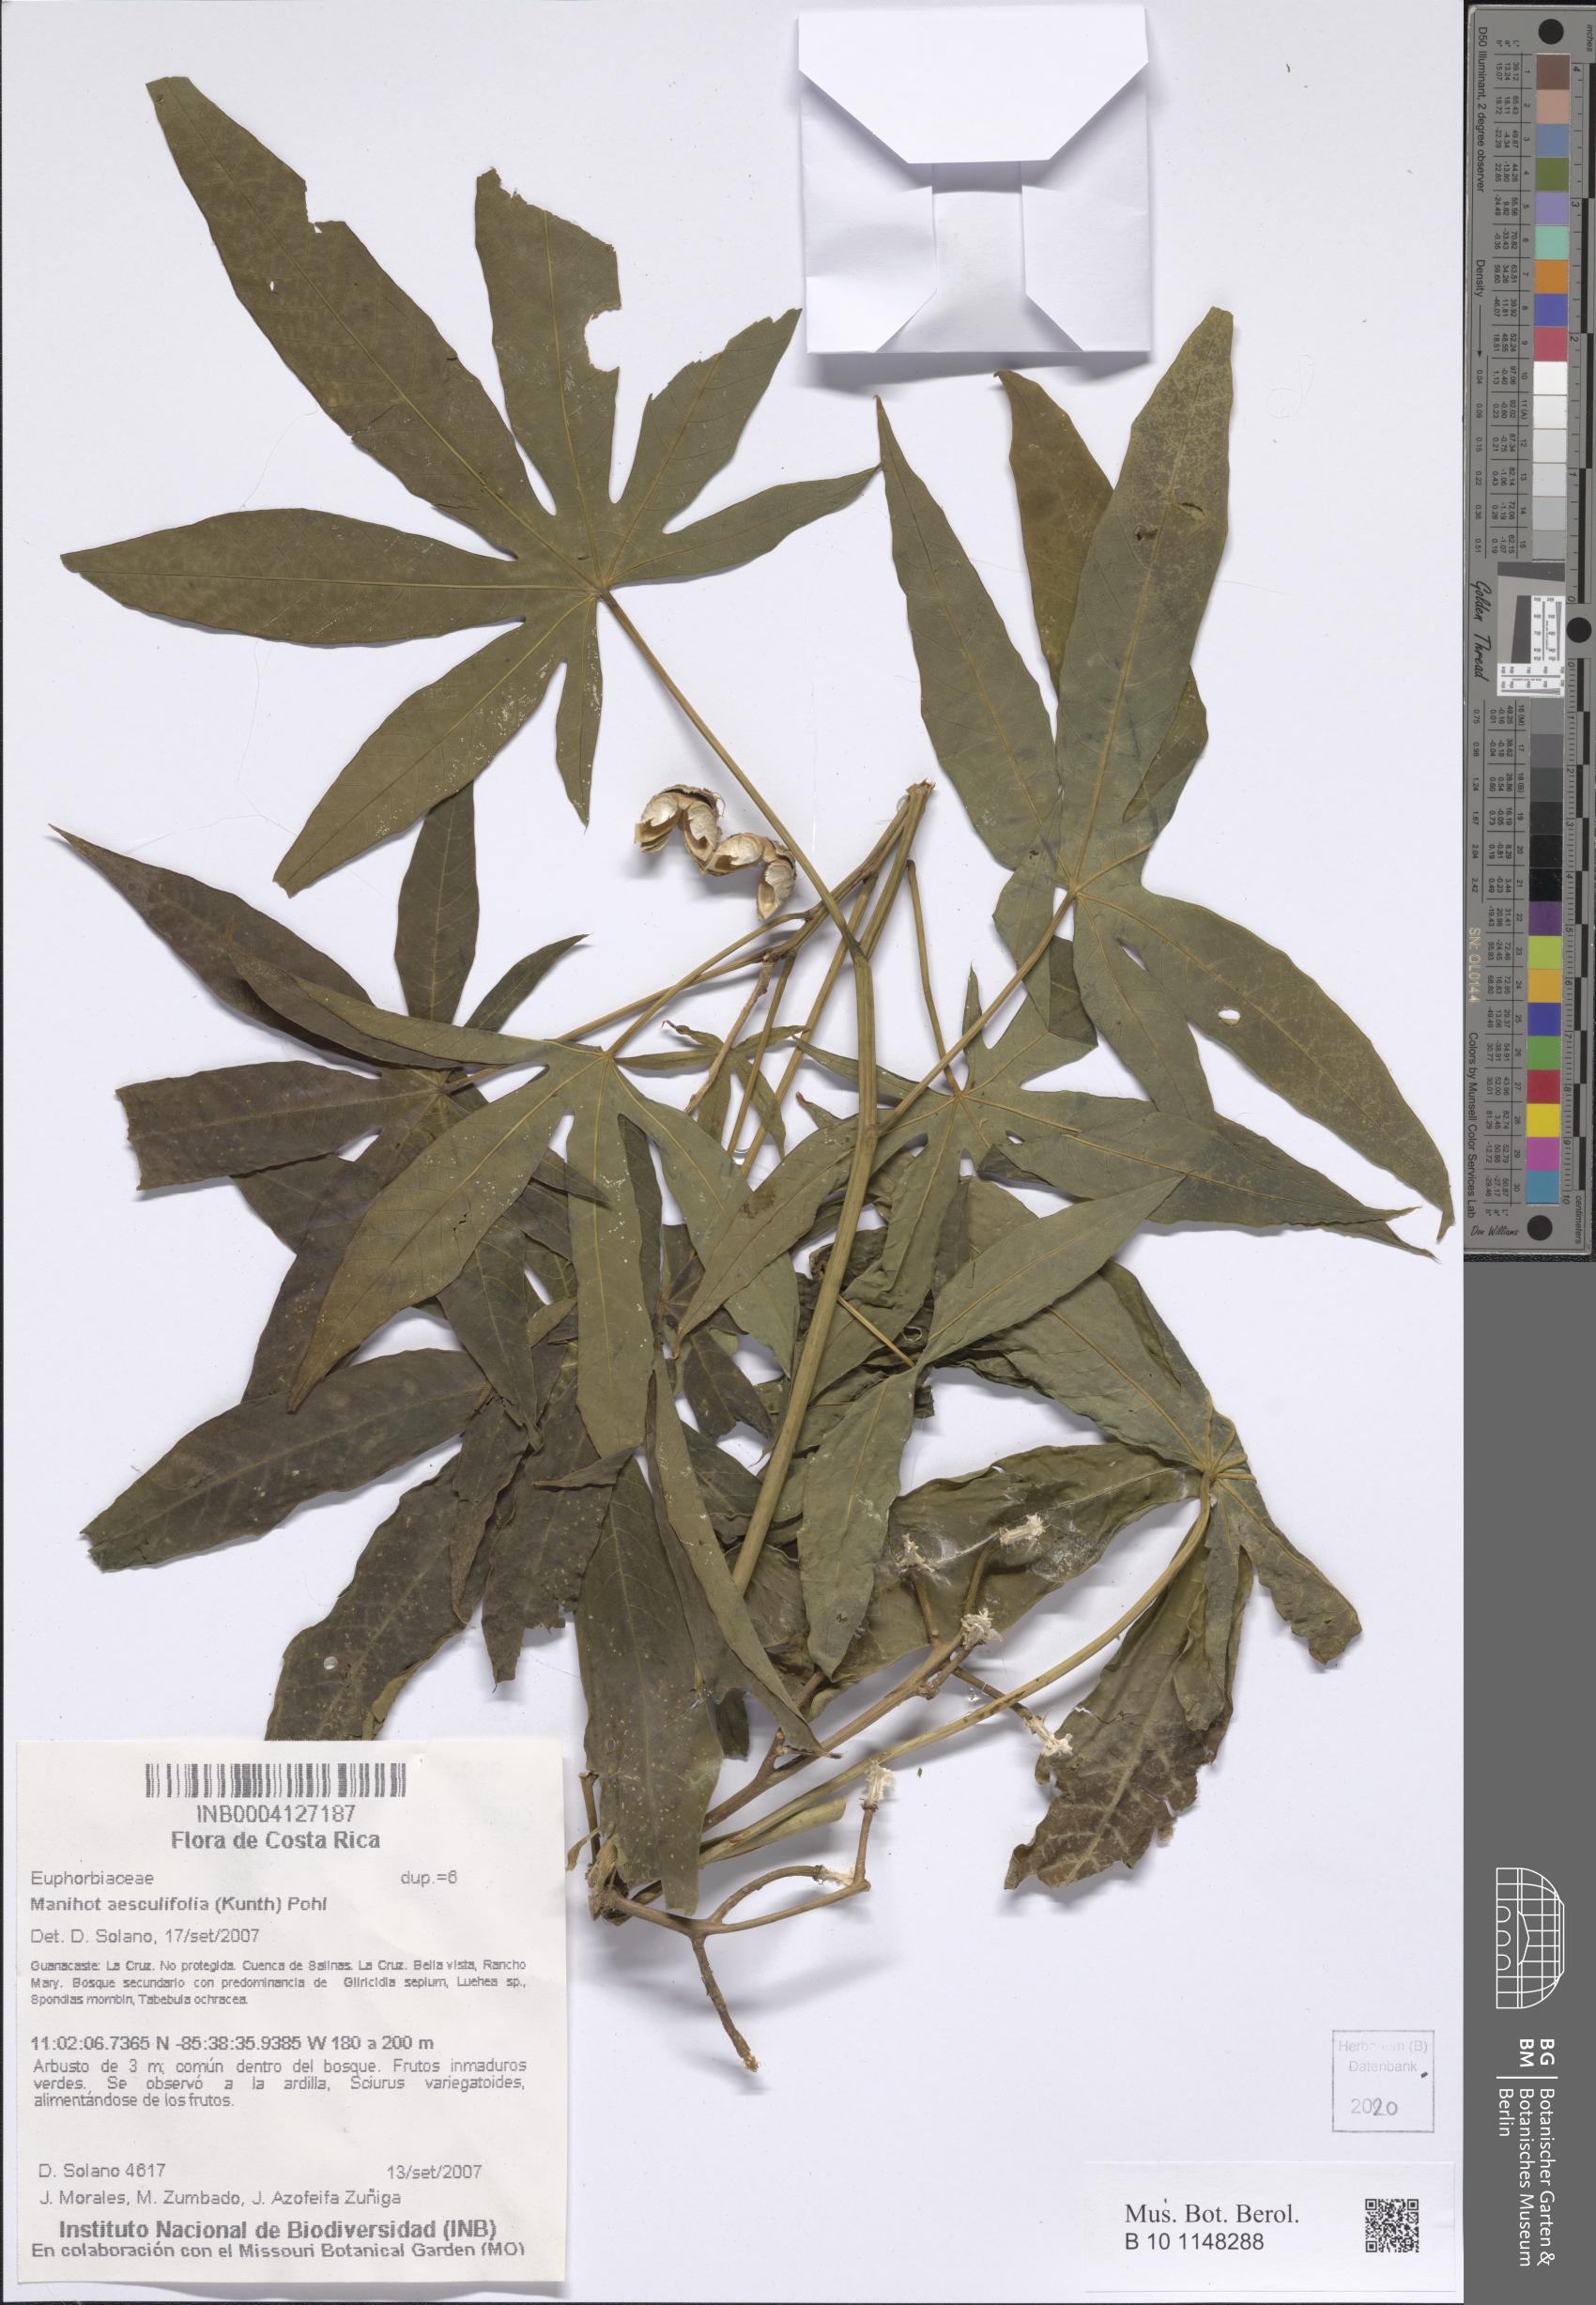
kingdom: Plantae
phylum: Tracheophyta
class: Magnoliopsida
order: Malpighiales
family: Euphorbiaceae
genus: Manihot
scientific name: Manihot aesculifolia
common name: Buckeye-leafed cassava
